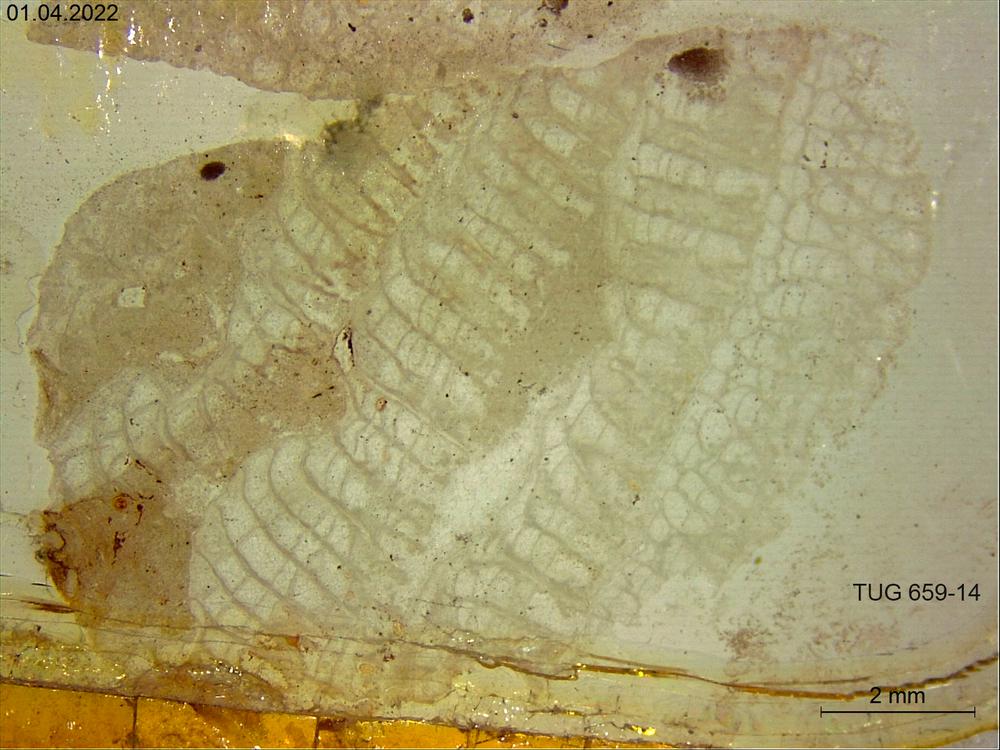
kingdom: Animalia
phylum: Porifera
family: Stromatoporidae
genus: Stromatopora
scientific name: Stromatopora
